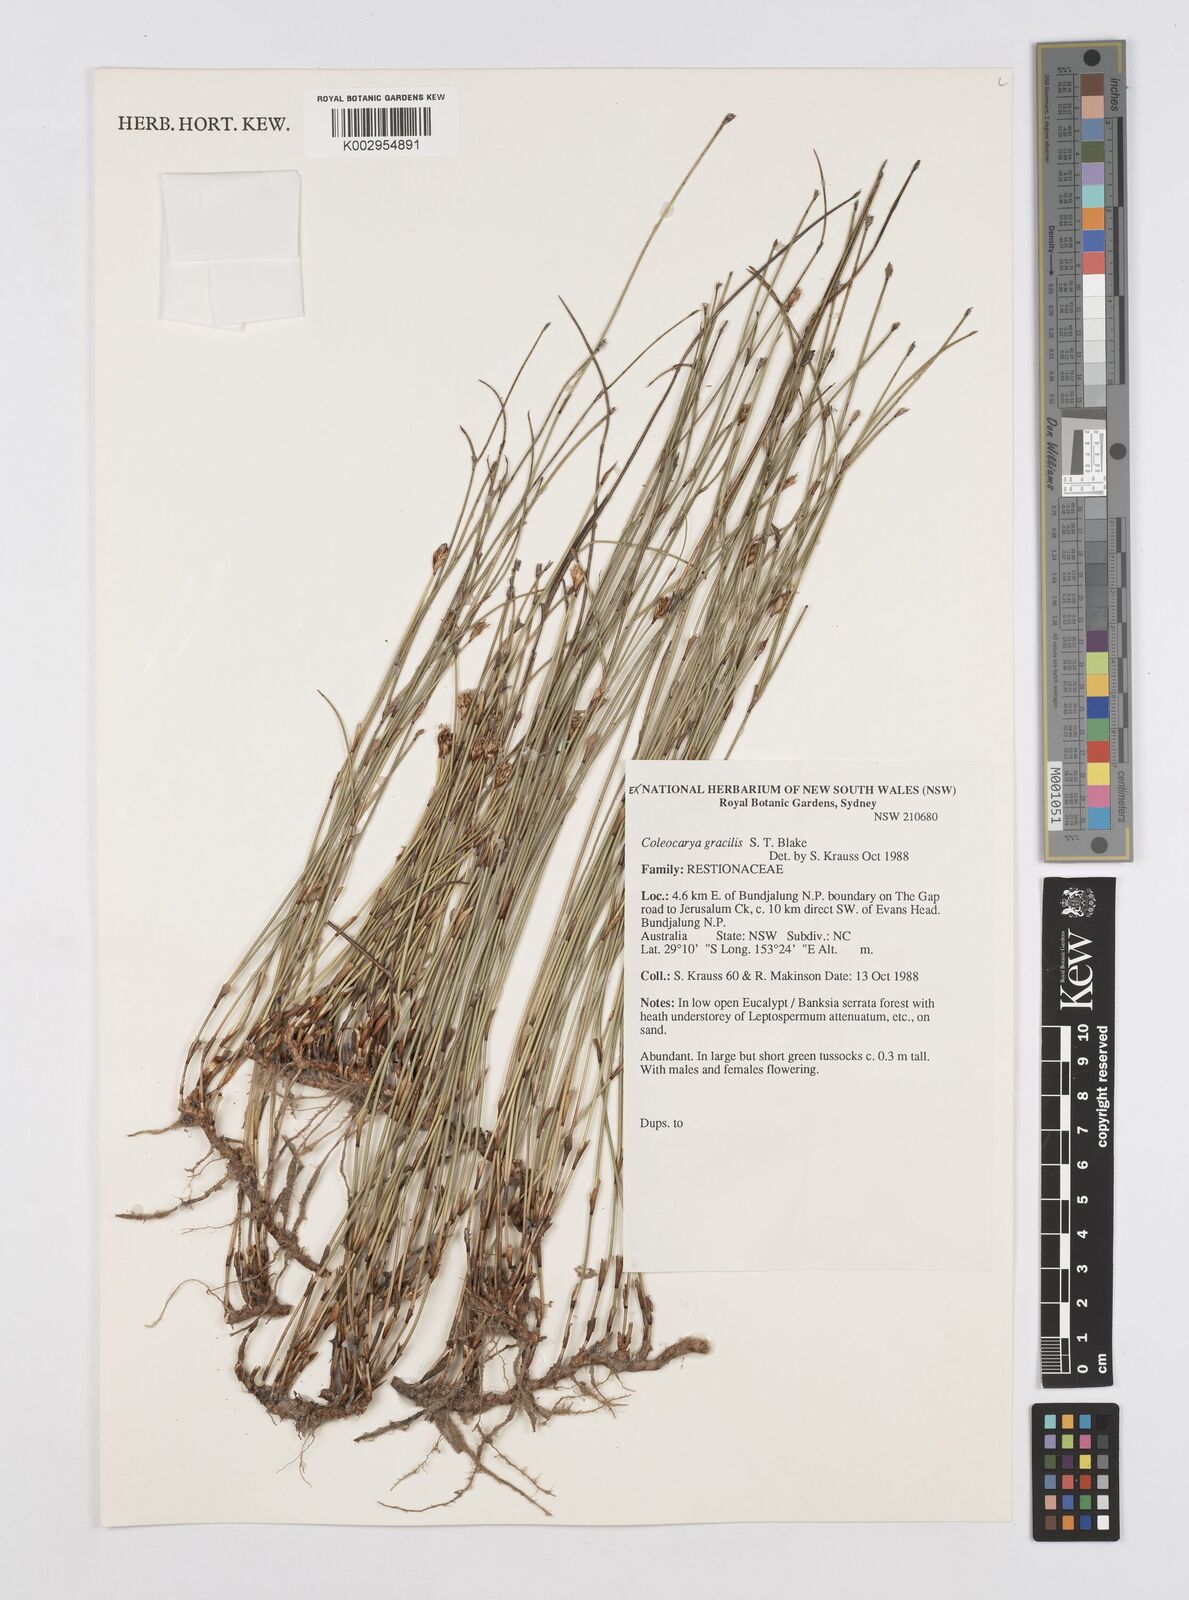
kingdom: Plantae
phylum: Tracheophyta
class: Liliopsida
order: Poales
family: Restionaceae
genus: Coleocarya
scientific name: Coleocarya gracilis
